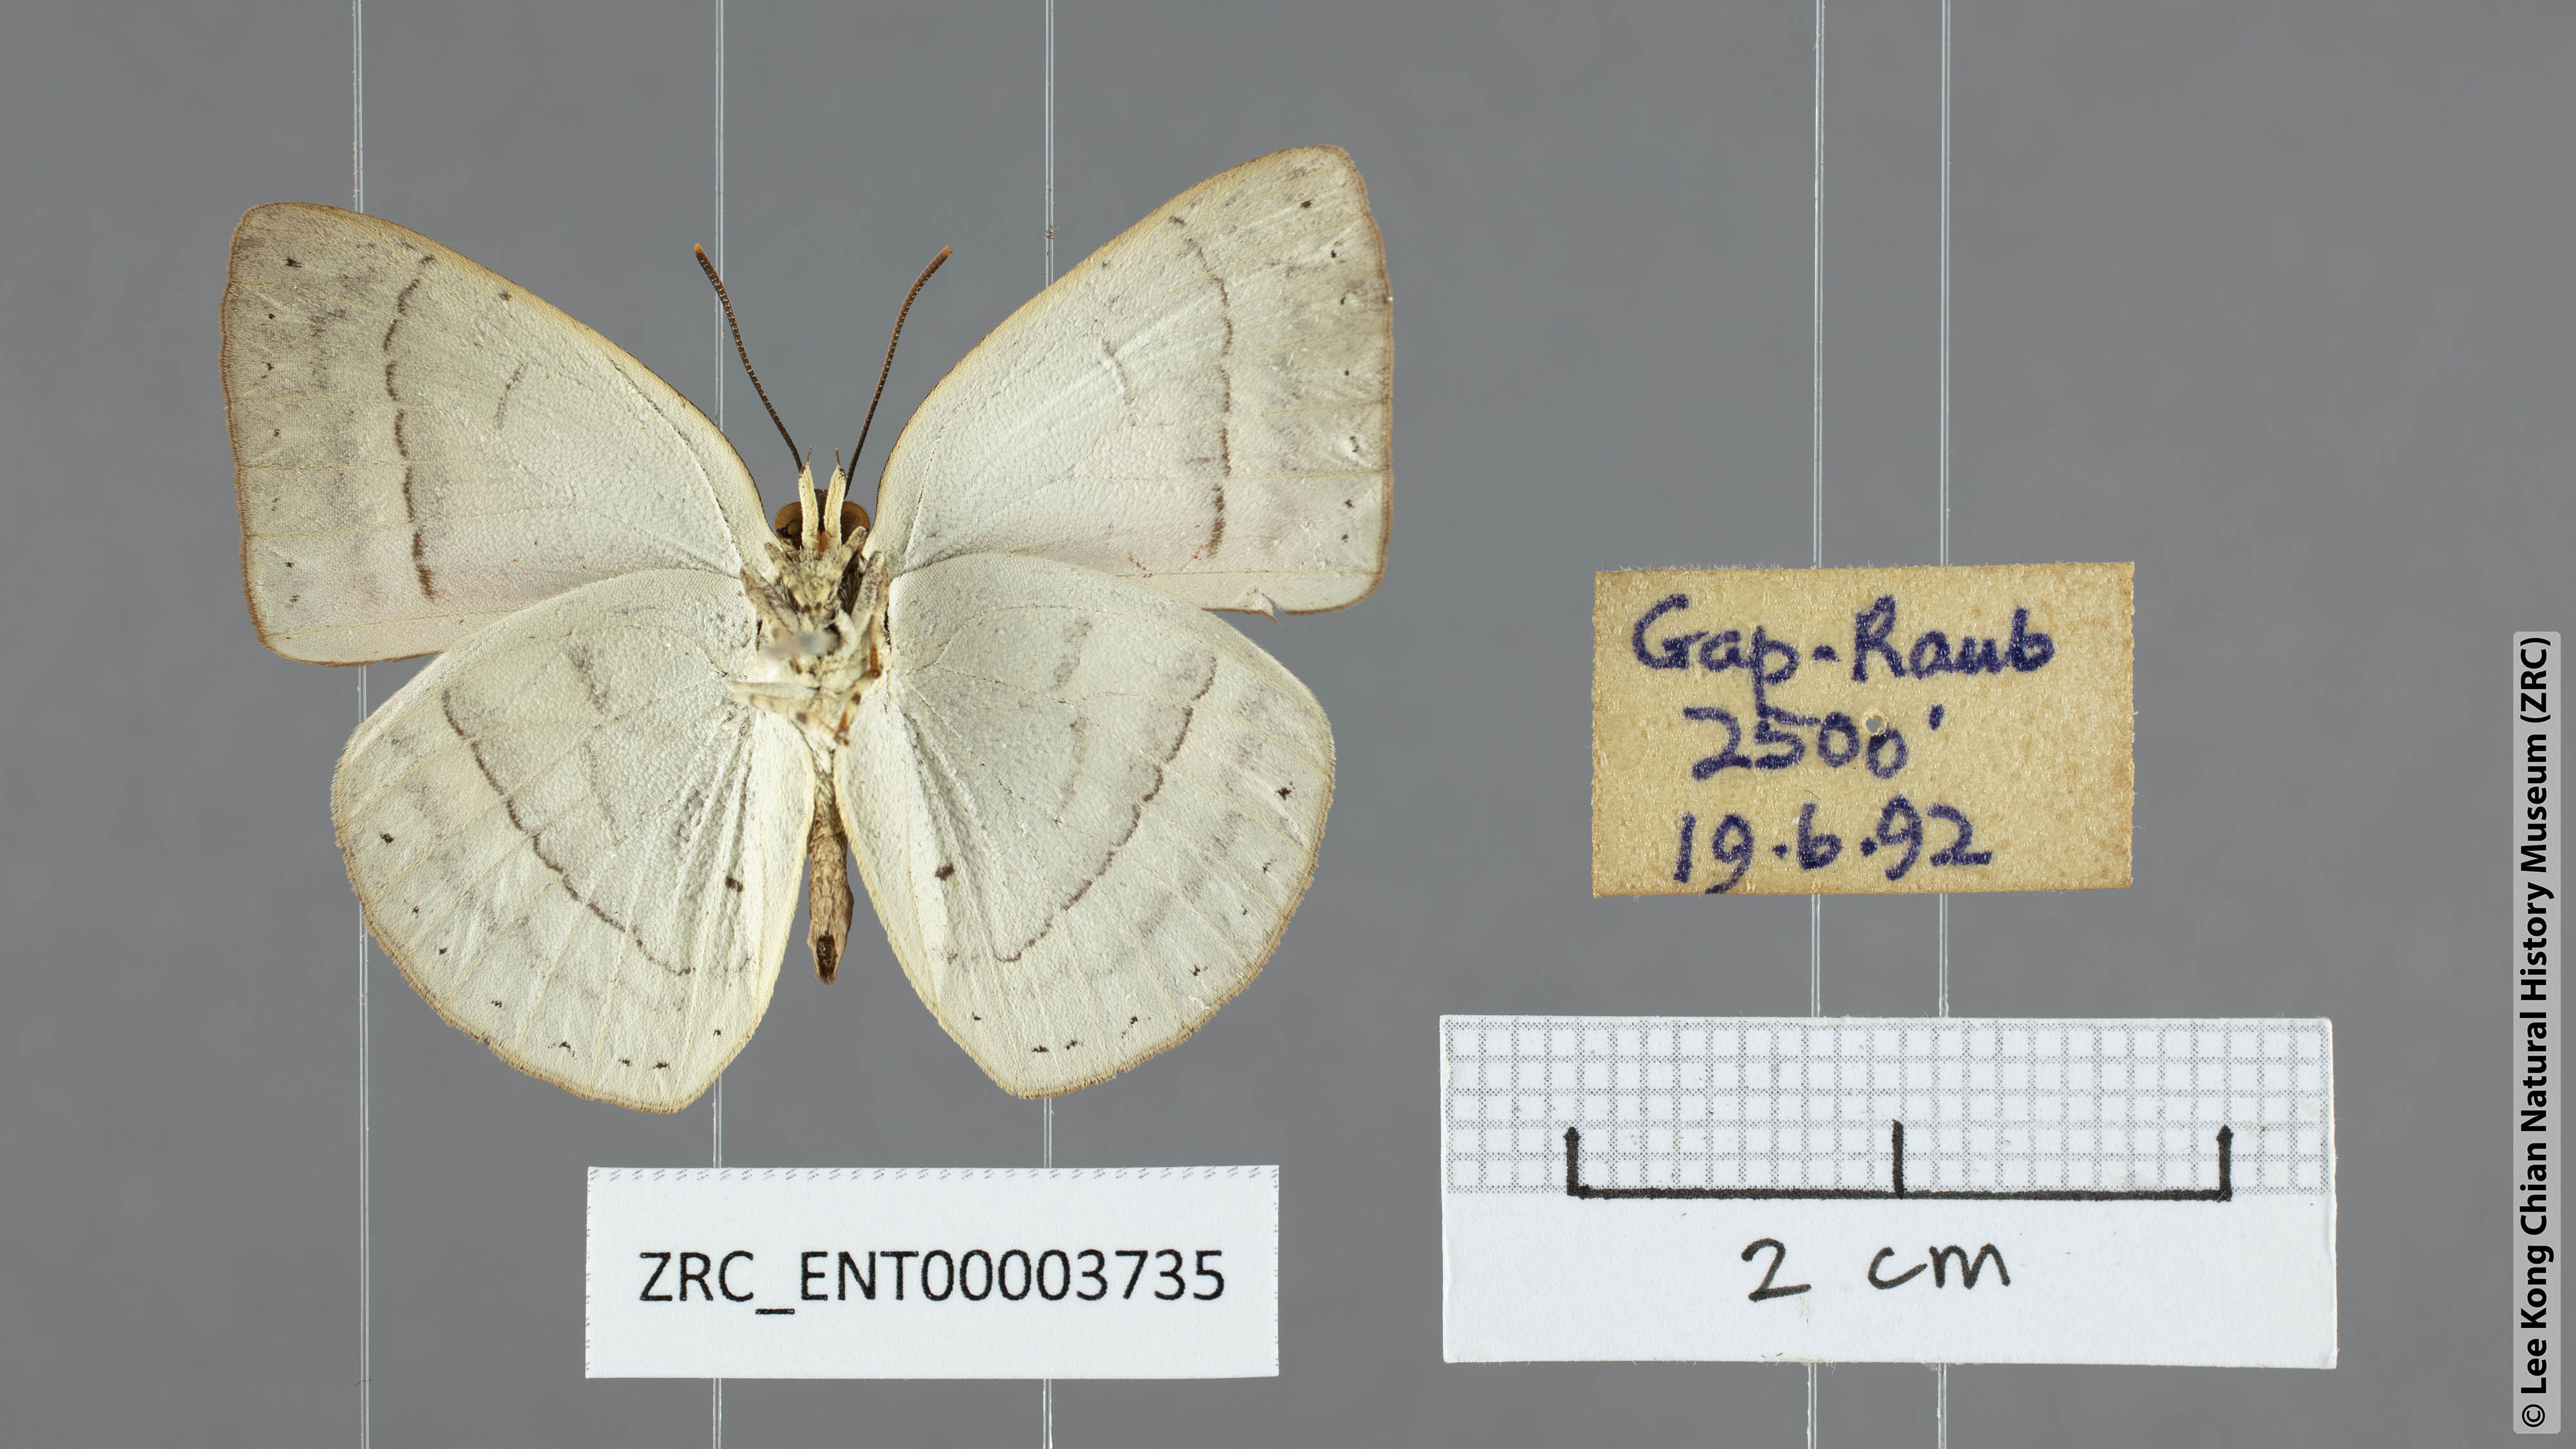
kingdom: Animalia
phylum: Arthropoda
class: Insecta
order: Lepidoptera
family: Lycaenidae
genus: Curetis
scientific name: Curetis freda
